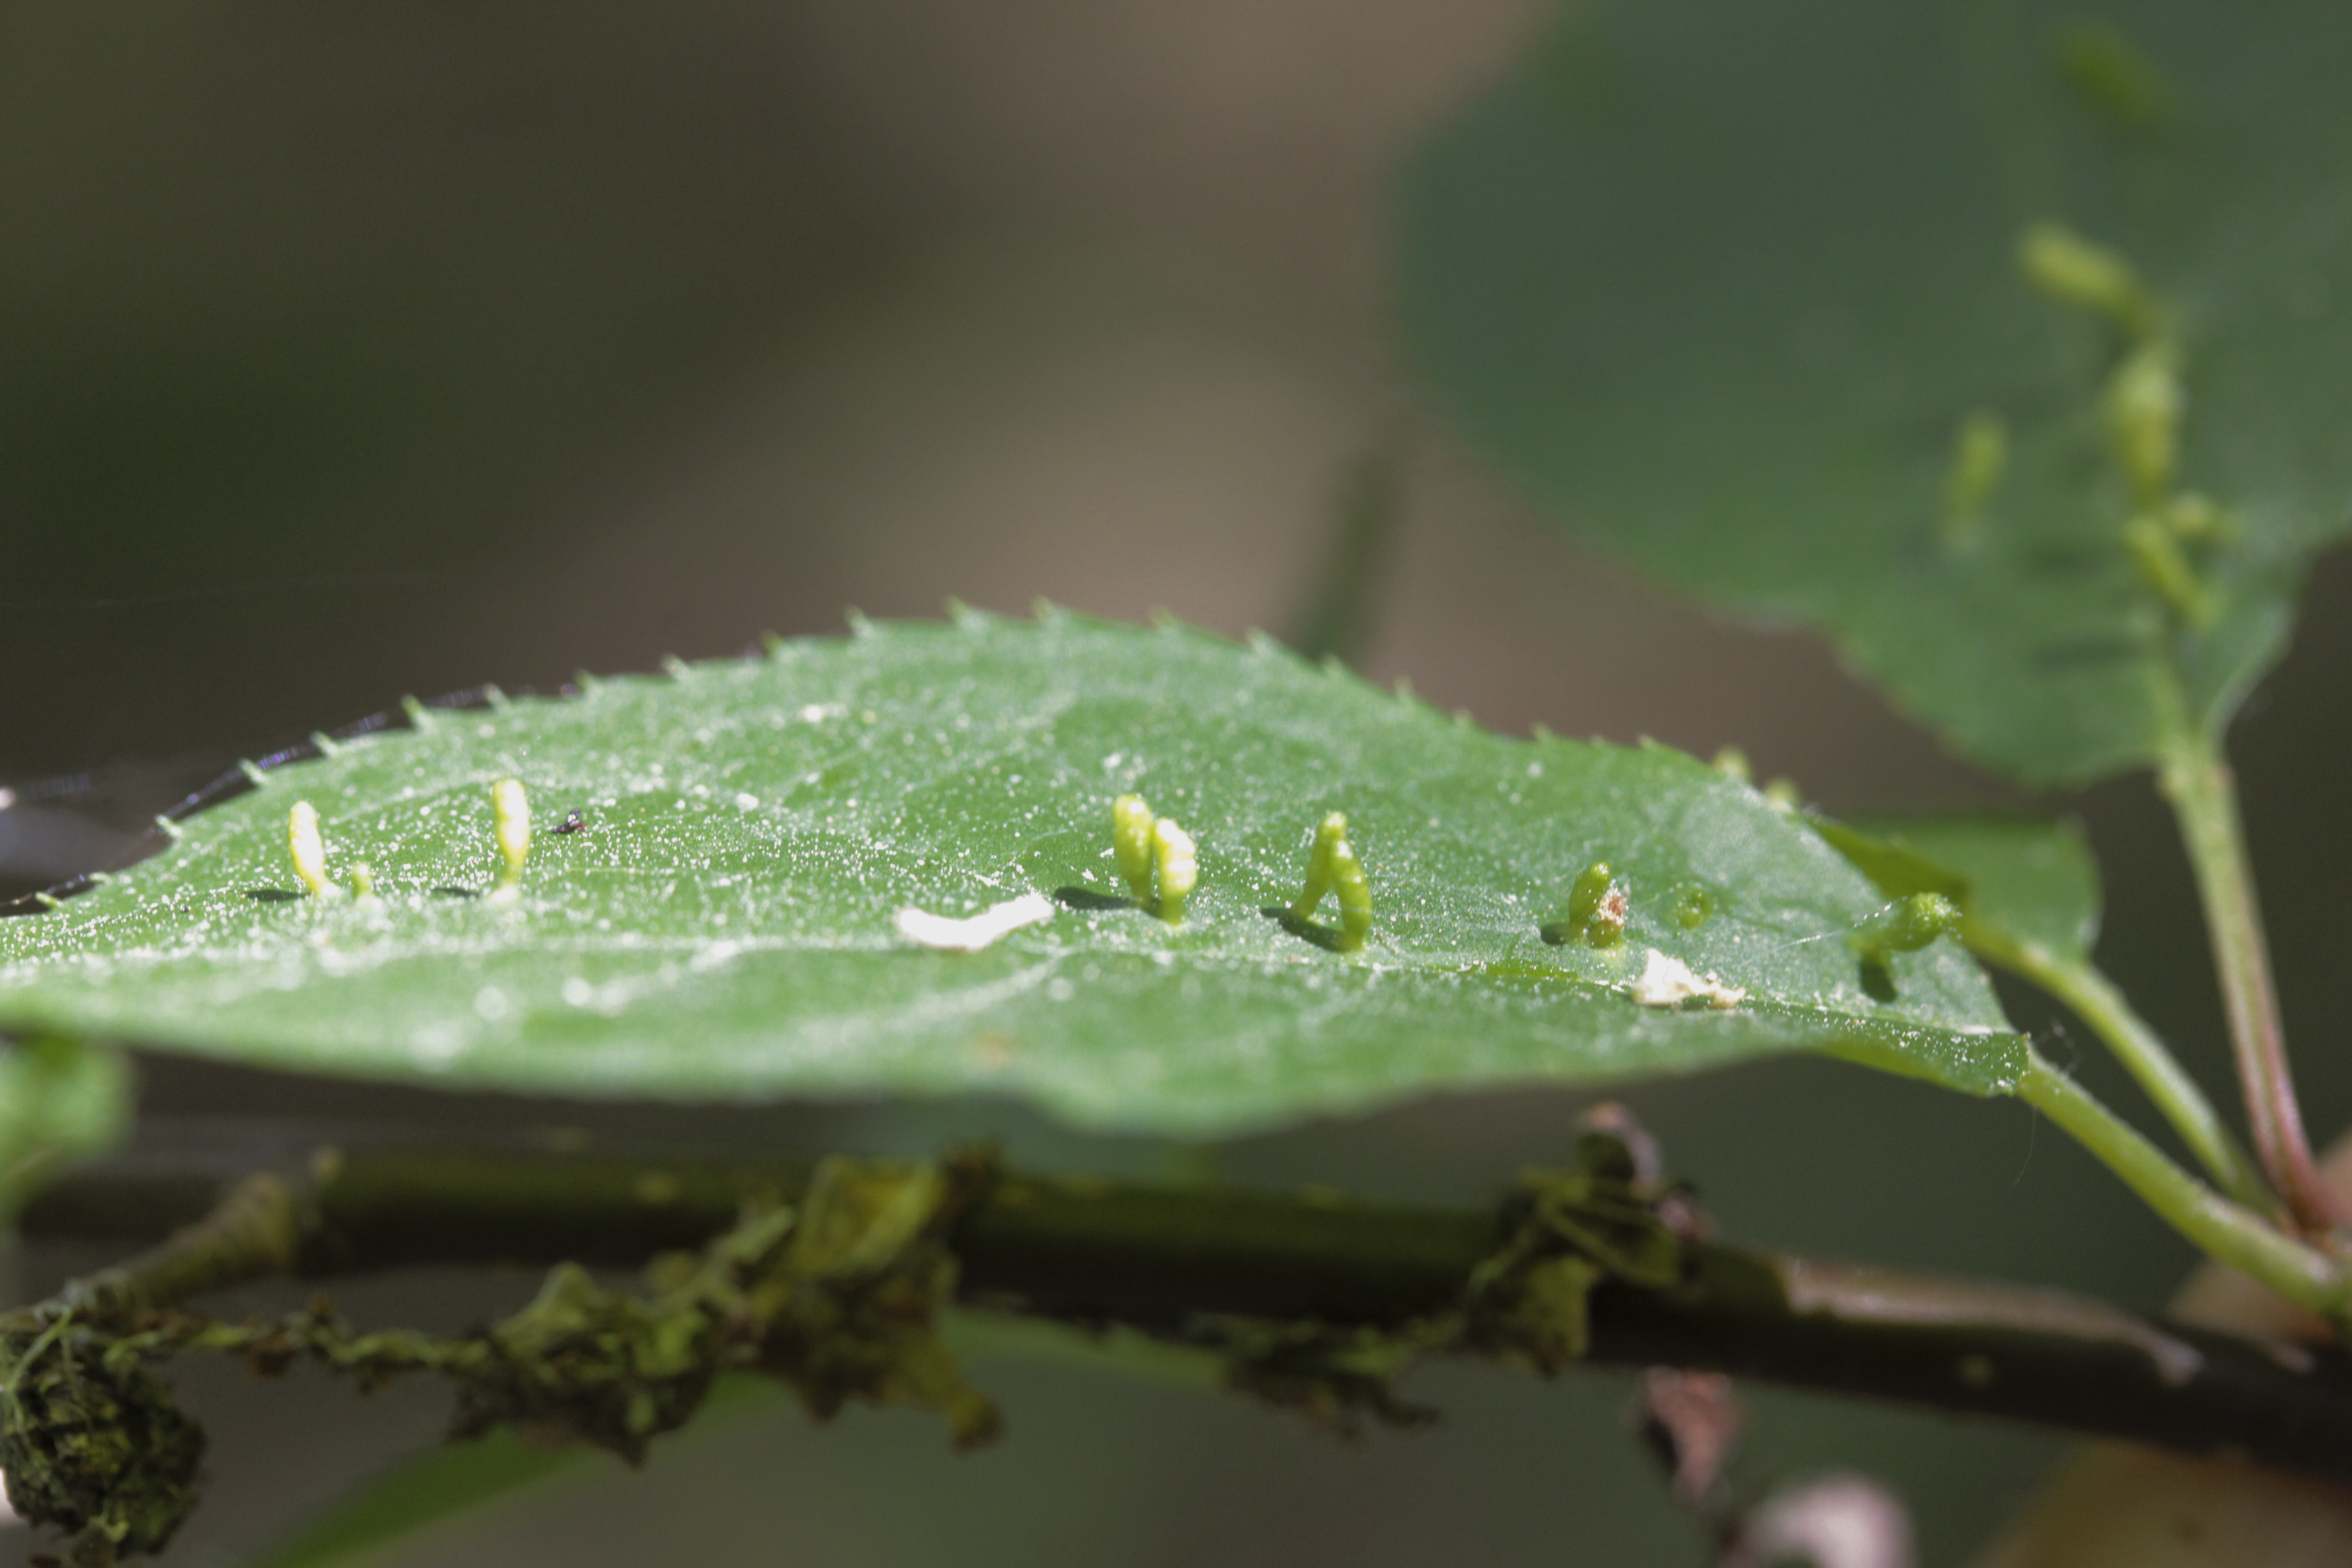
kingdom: Animalia
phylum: Arthropoda
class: Arachnida
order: Trombidiformes
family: Eriophyidae
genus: Phyllocoptes
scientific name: Phyllocoptes eupadi
